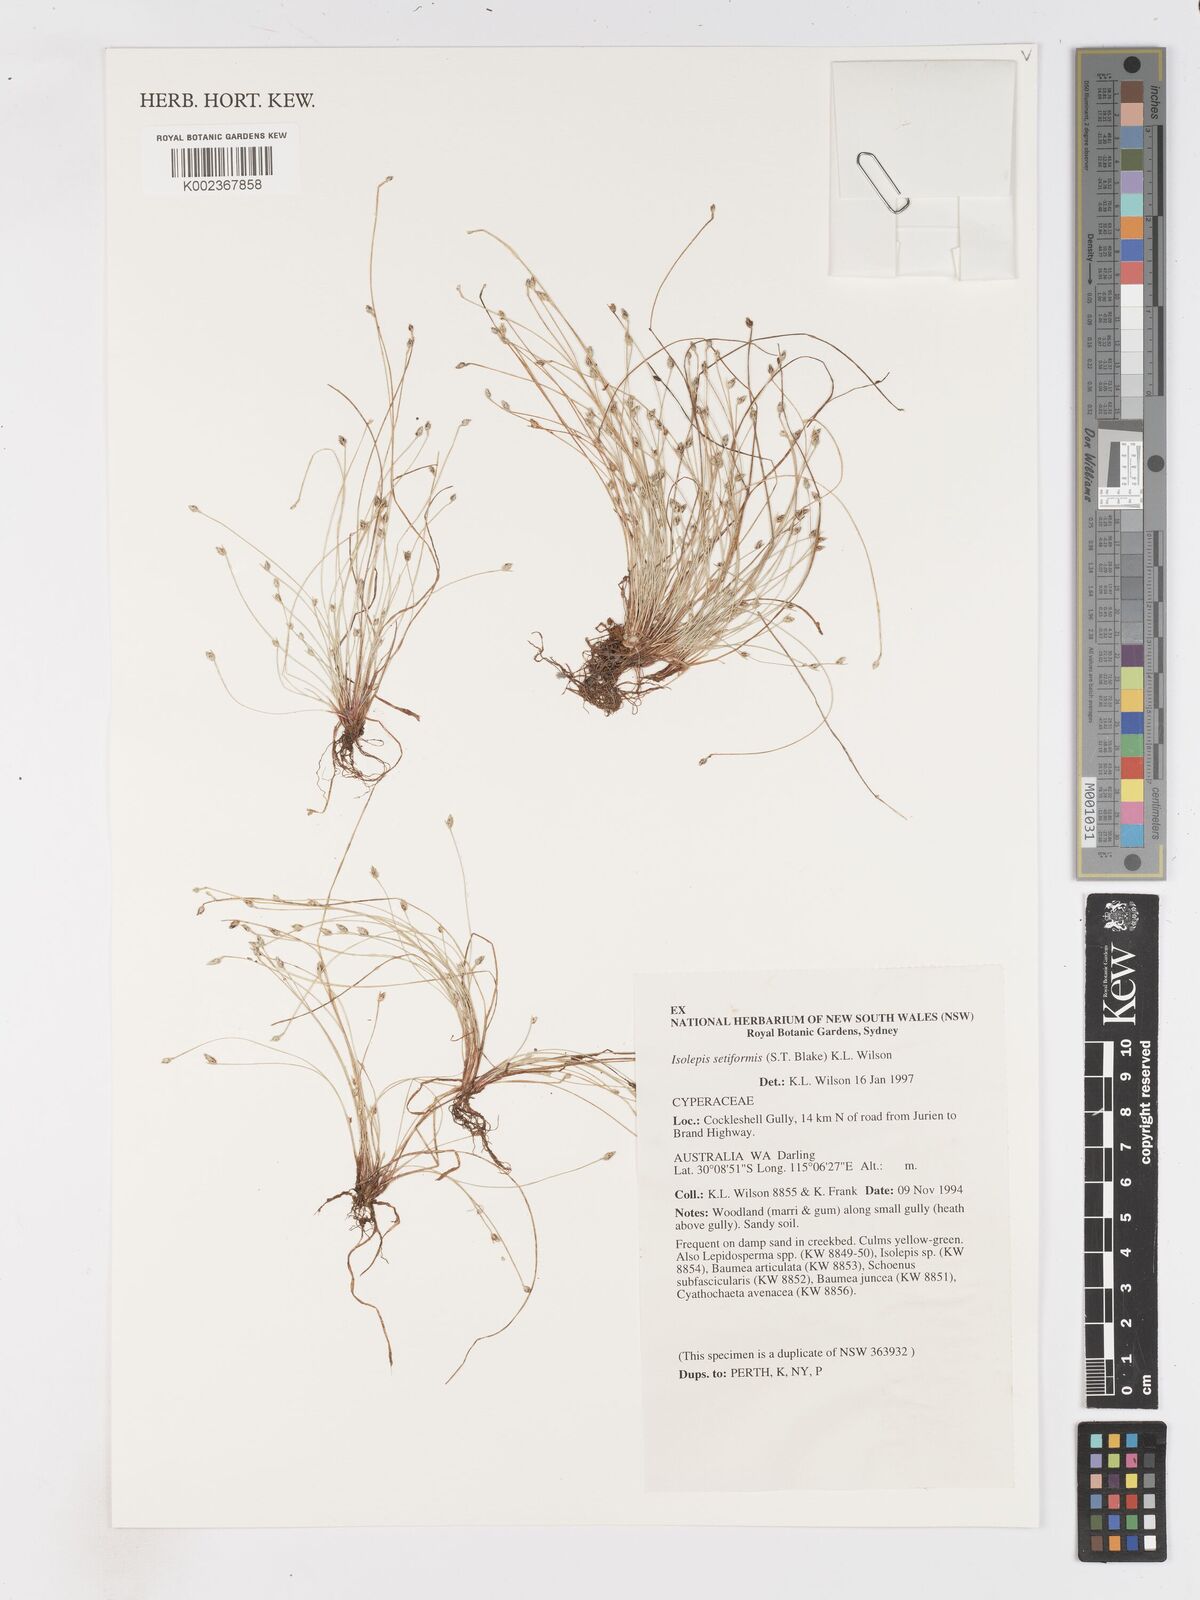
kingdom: Plantae
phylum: Tracheophyta
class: Liliopsida
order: Poales
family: Cyperaceae
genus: Isolepis
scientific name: Isolepis cernua
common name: Slender club-rush
